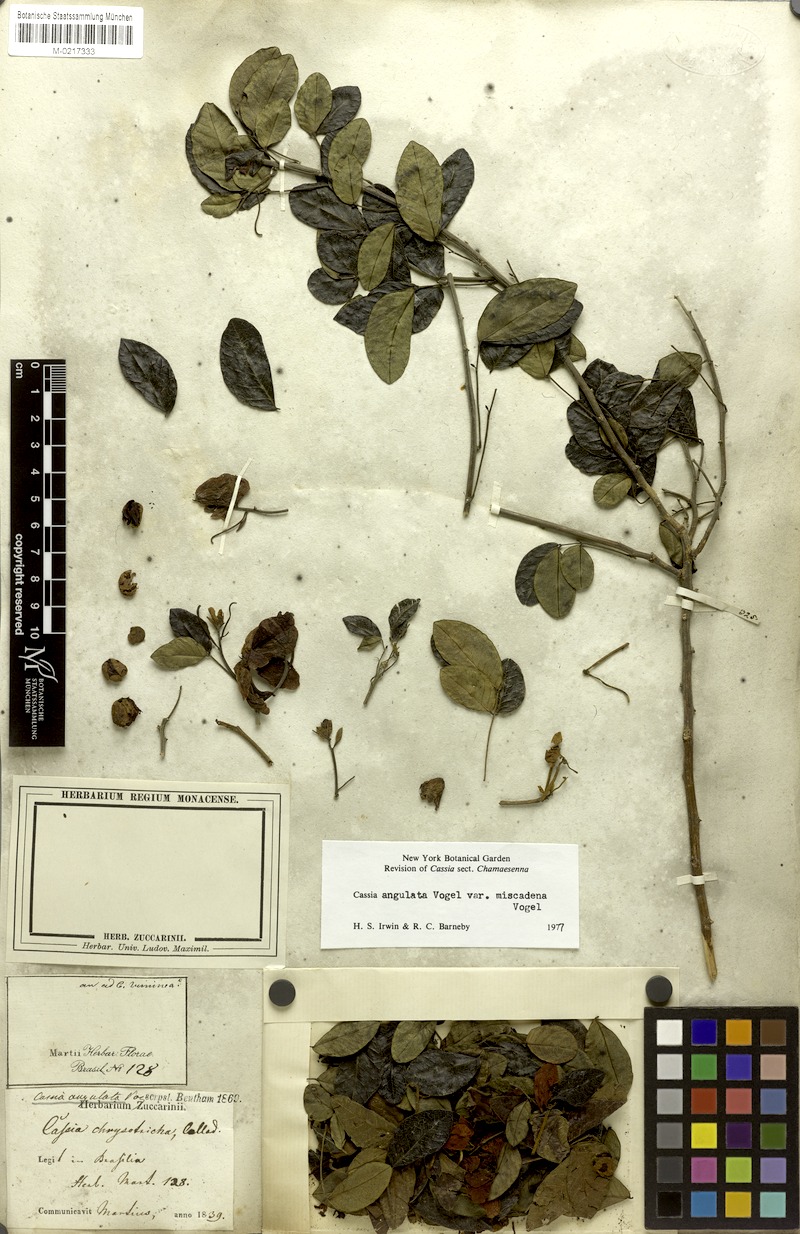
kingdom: Plantae
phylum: Tracheophyta
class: Magnoliopsida
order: Fabales
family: Fabaceae
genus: Senna
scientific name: Senna angulata
